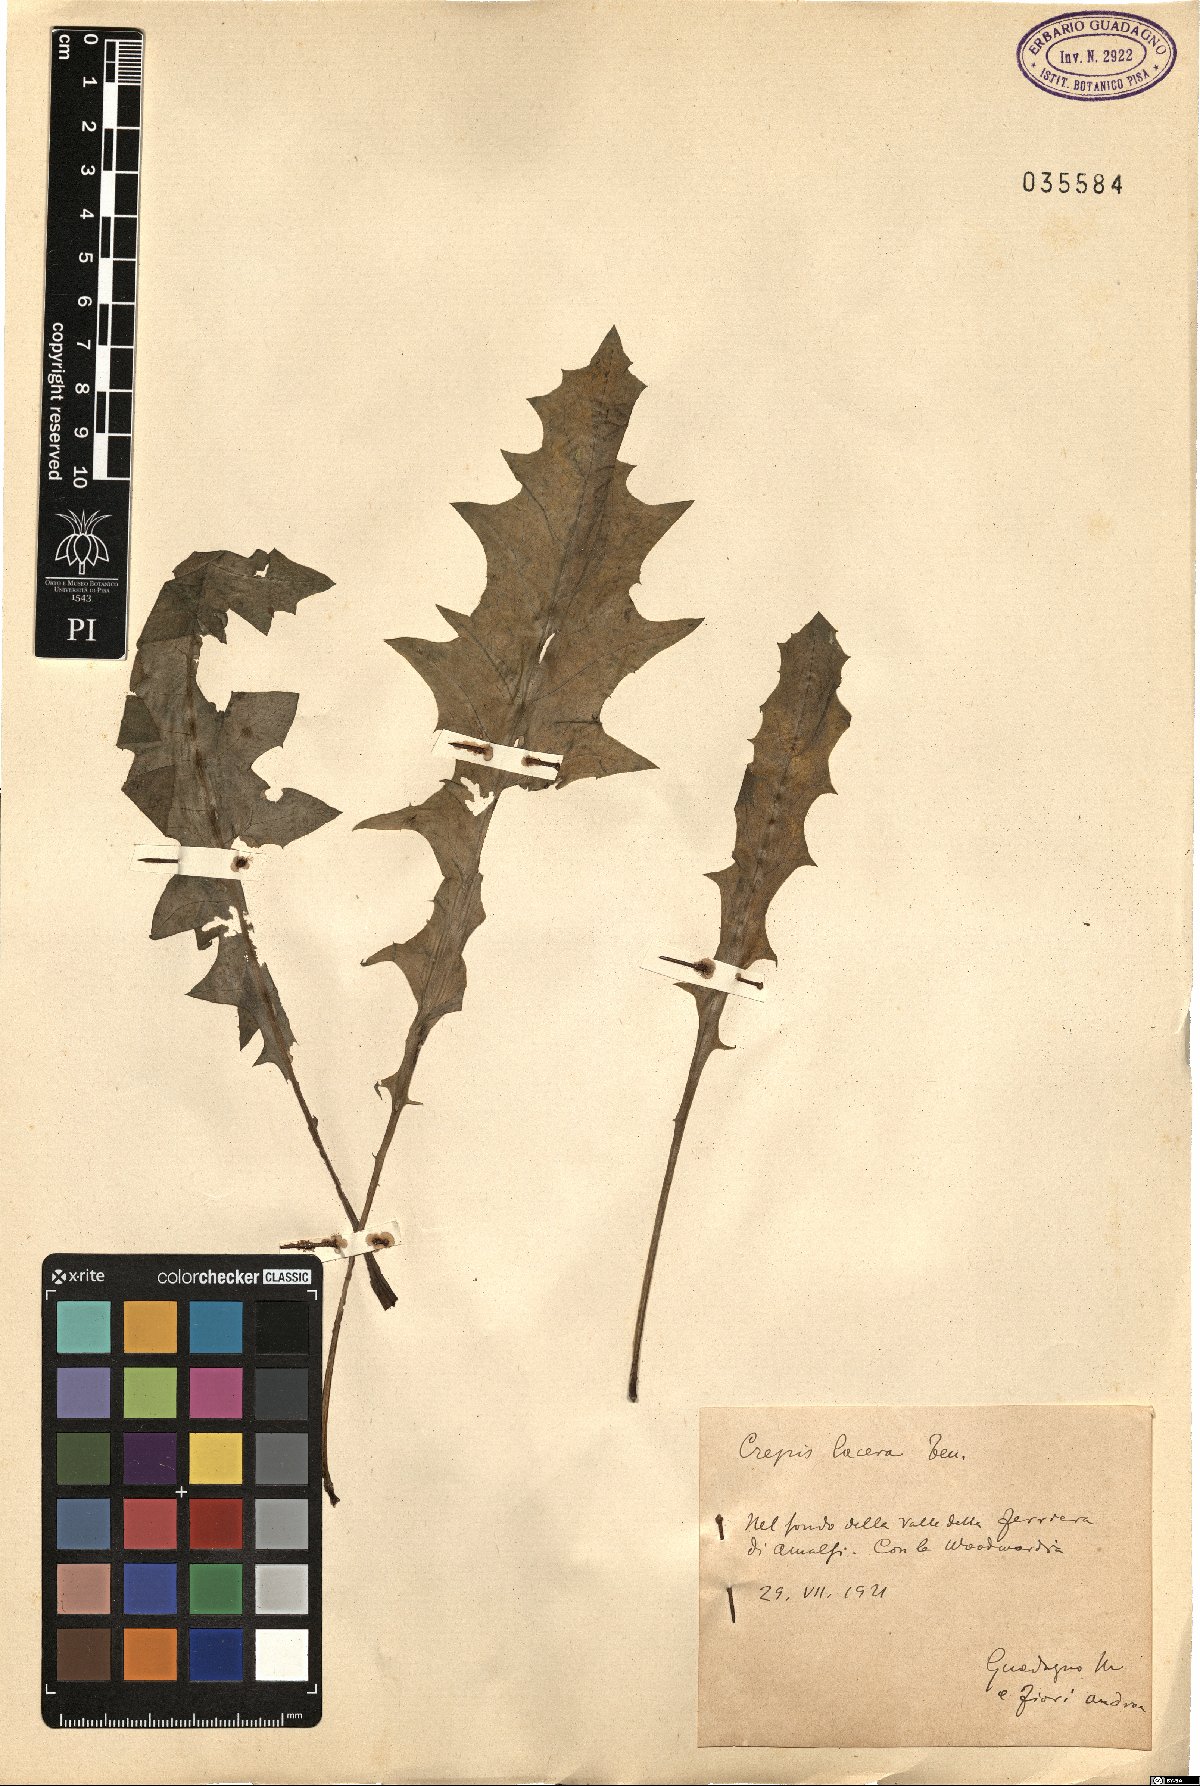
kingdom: Plantae
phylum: Tracheophyta
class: Magnoliopsida
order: Asterales
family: Asteraceae
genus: Crepis
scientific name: Crepis lacera
